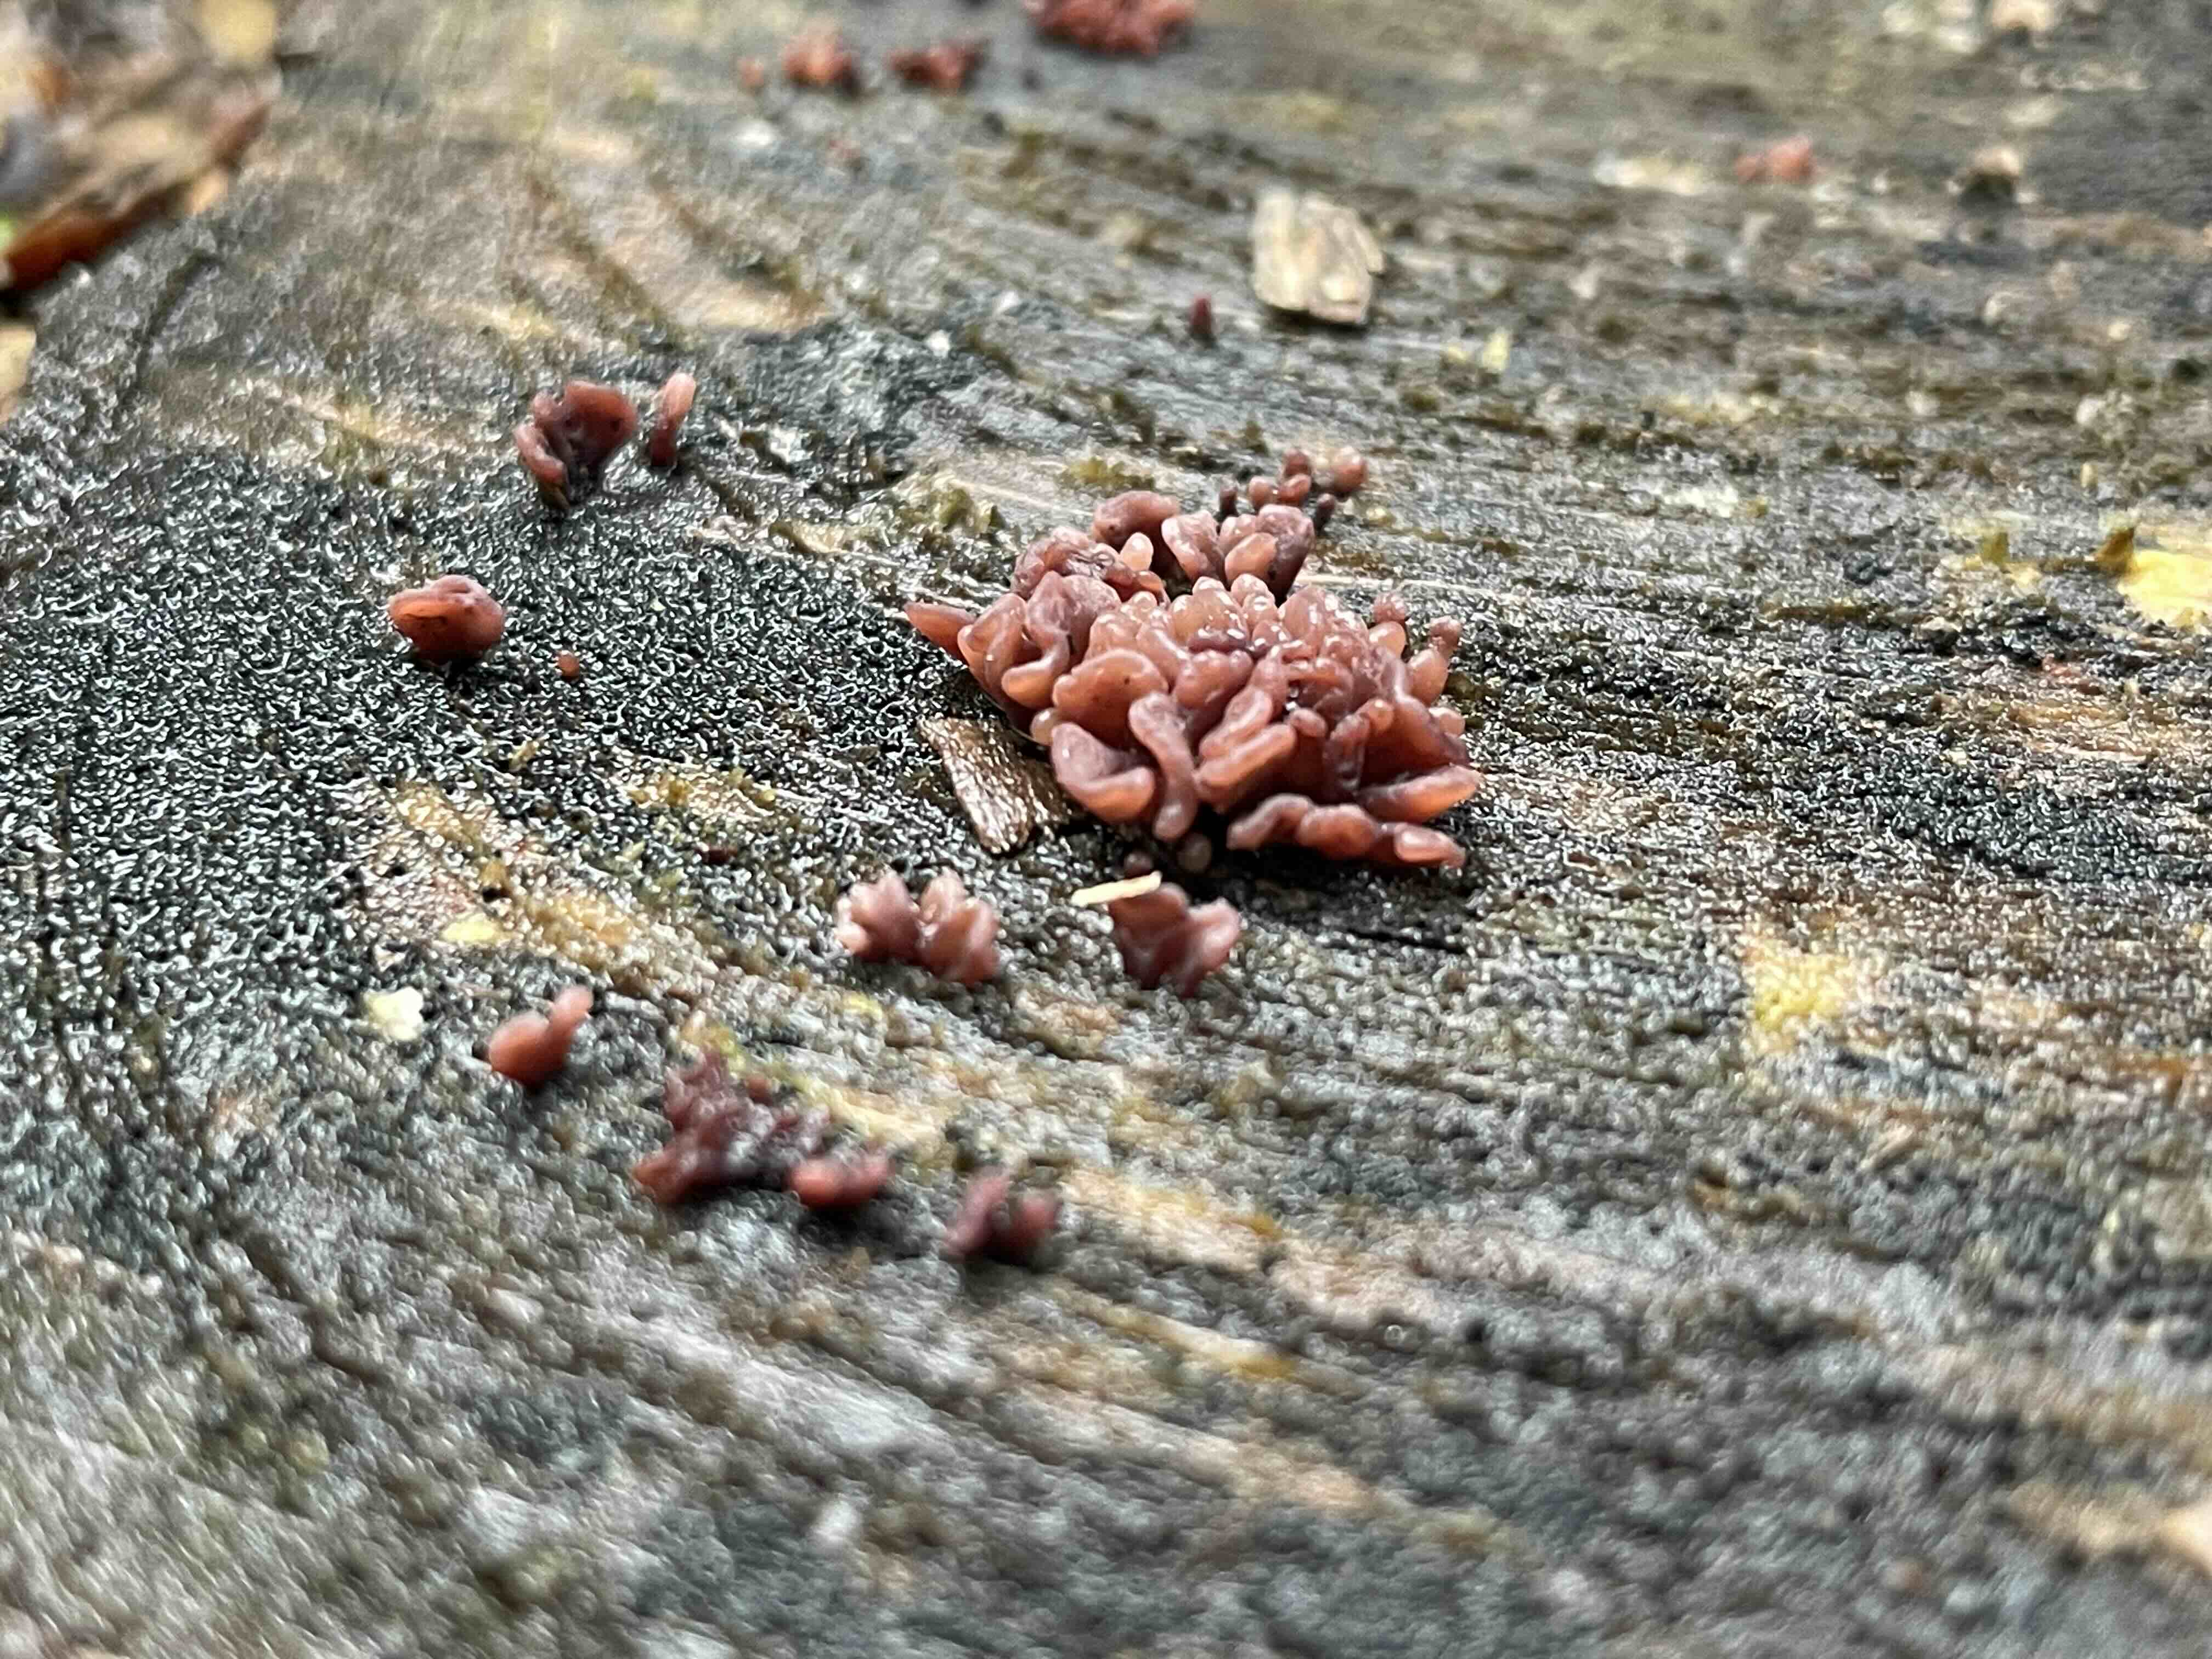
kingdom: Fungi
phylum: Ascomycota
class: Leotiomycetes
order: Helotiales
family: Gelatinodiscaceae
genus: Ascocoryne
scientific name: Ascocoryne sarcoides
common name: rødlilla sejskive
